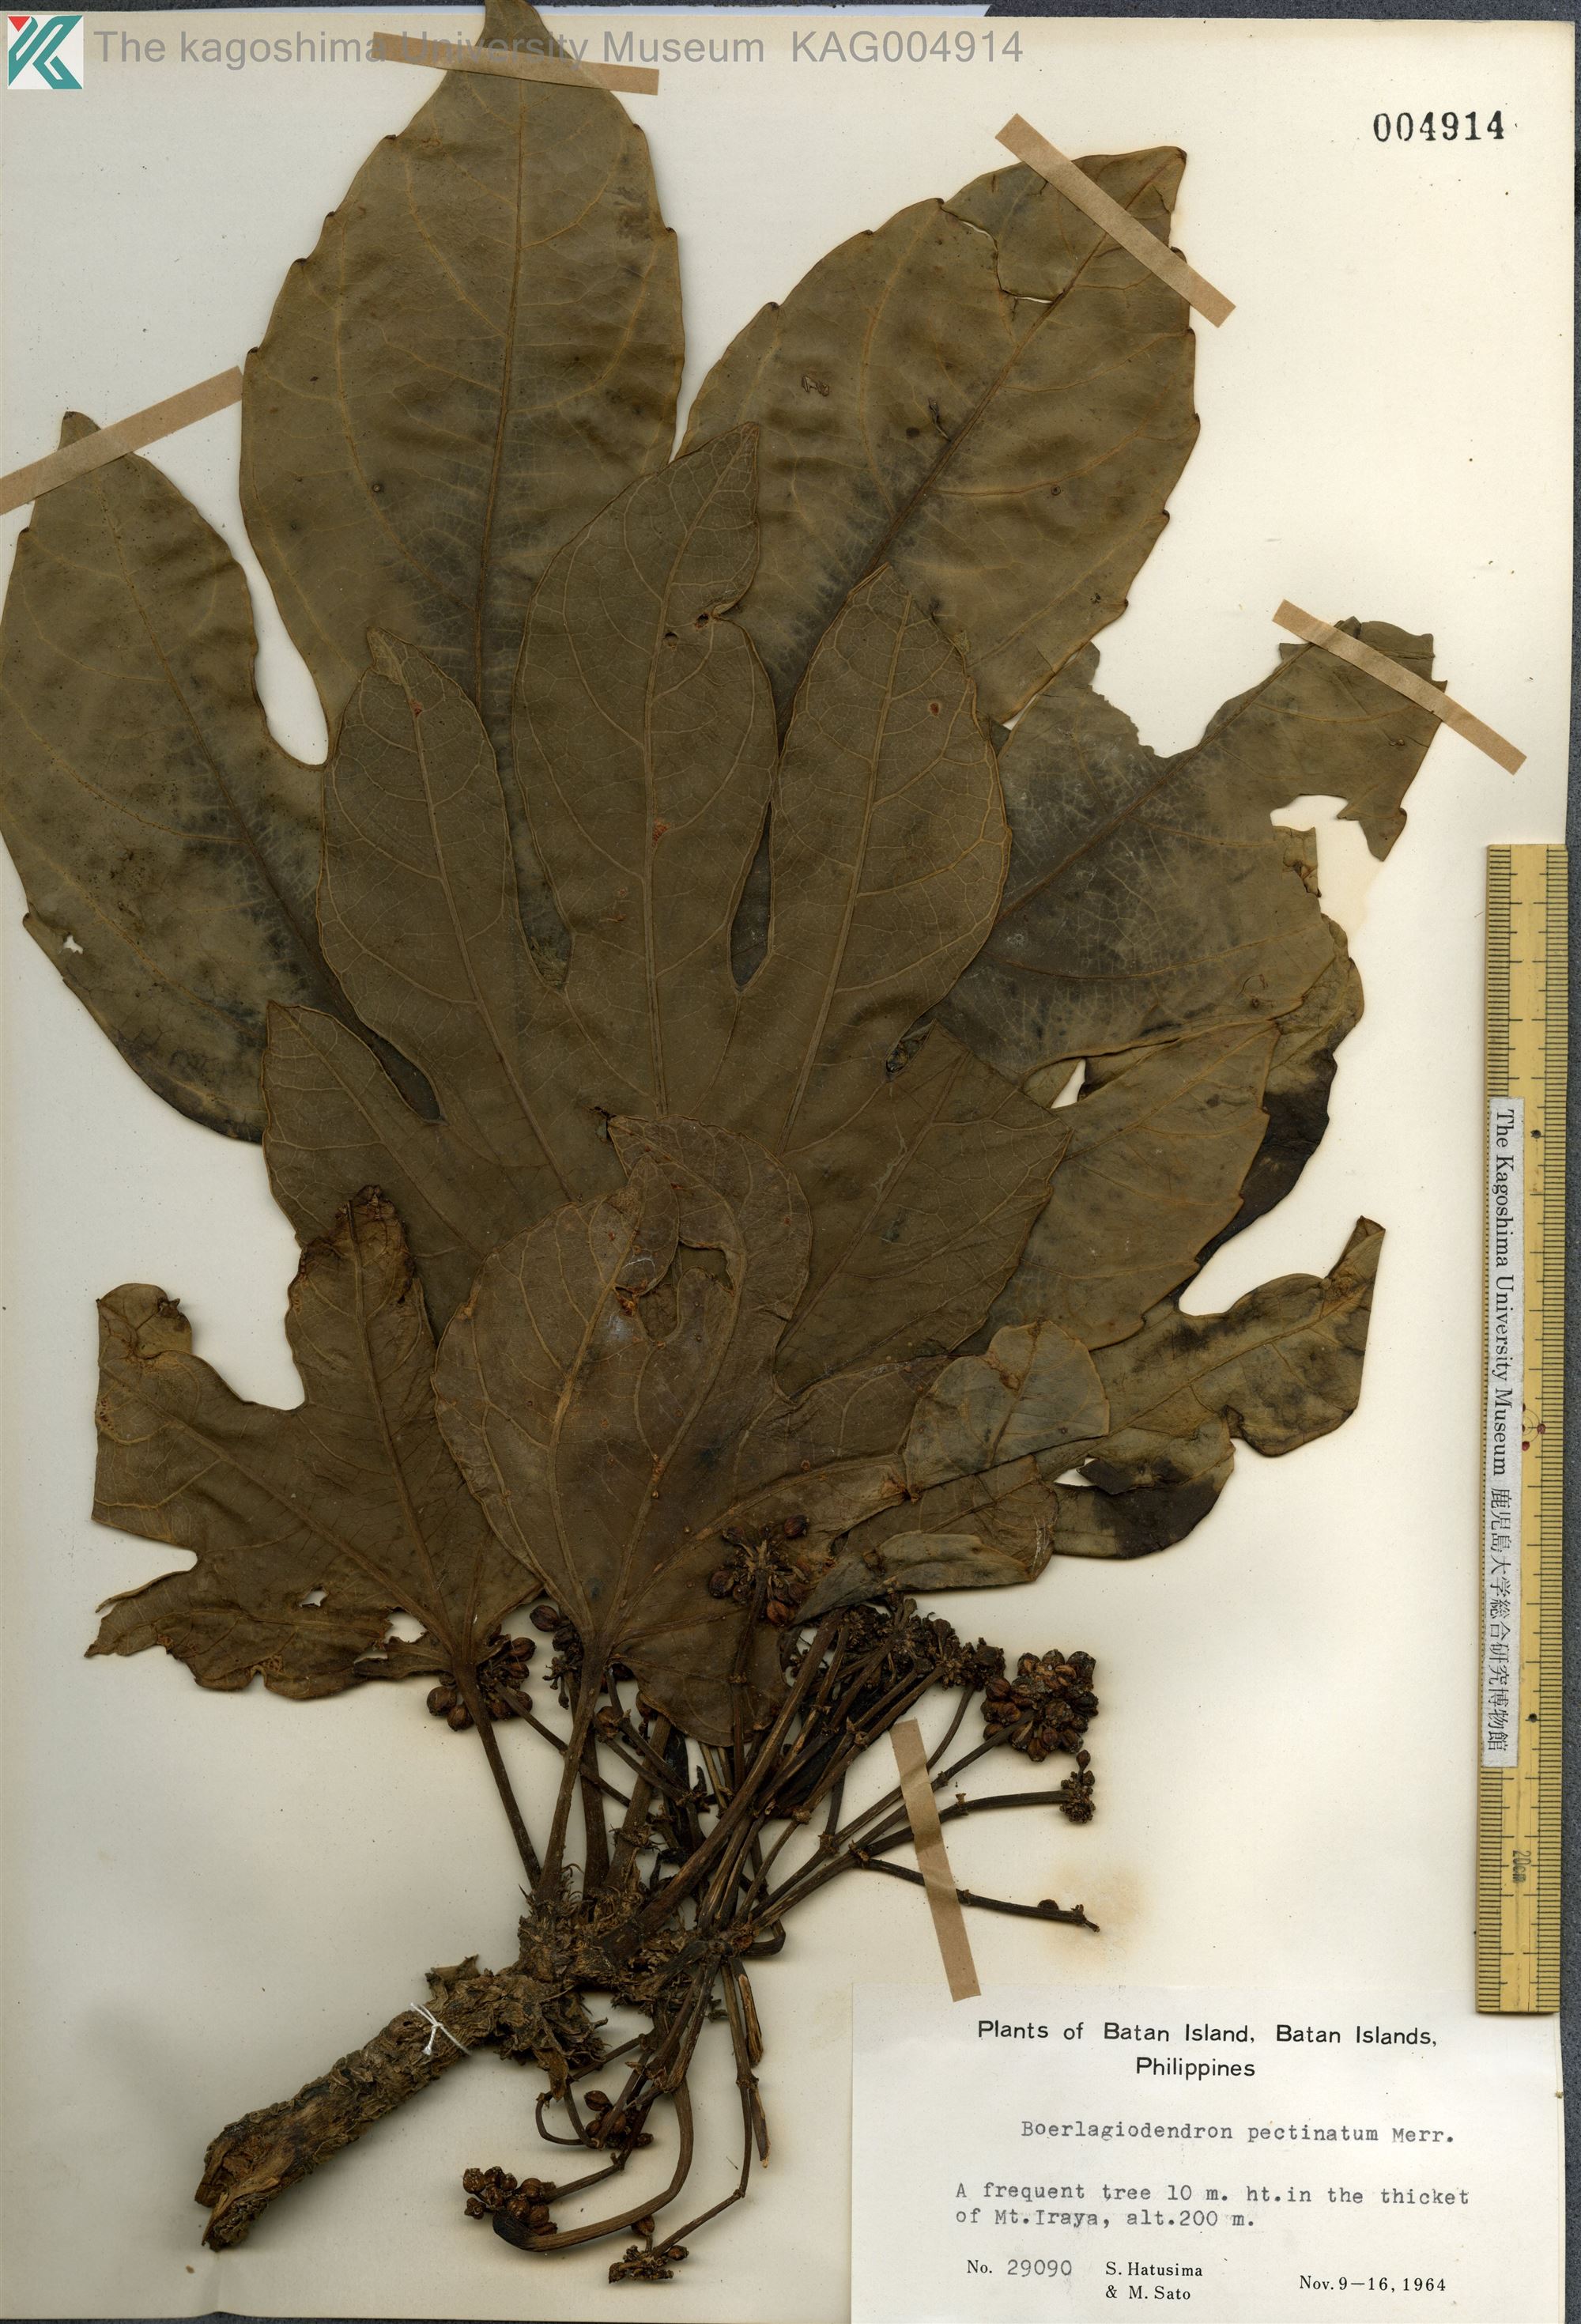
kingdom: Plantae
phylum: Tracheophyta
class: Magnoliopsida
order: Apiales
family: Araliaceae
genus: Osmoxylon
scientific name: Osmoxylon pectinatum
